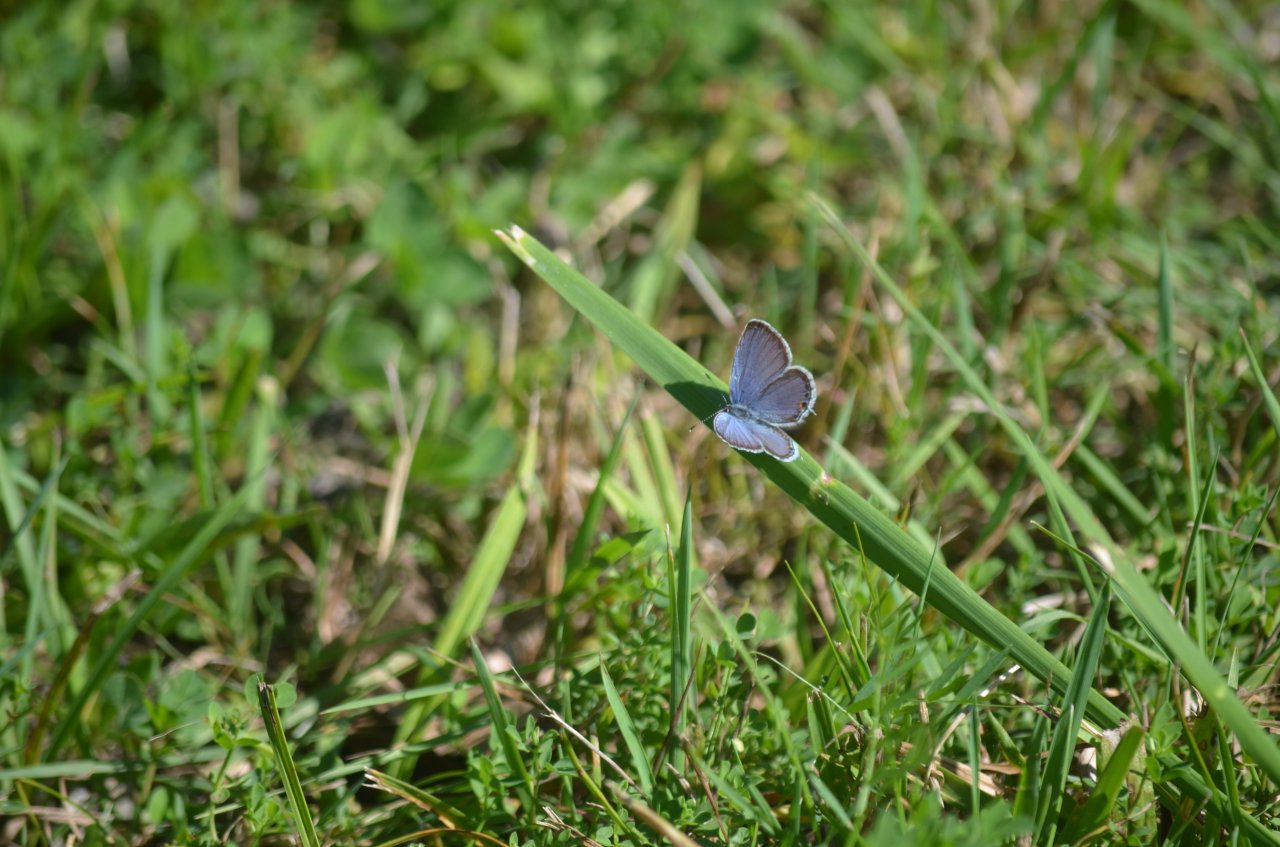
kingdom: Animalia
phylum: Arthropoda
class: Insecta
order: Lepidoptera
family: Lycaenidae
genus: Elkalyce
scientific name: Elkalyce comyntas
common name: Eastern Tailed-Blue
